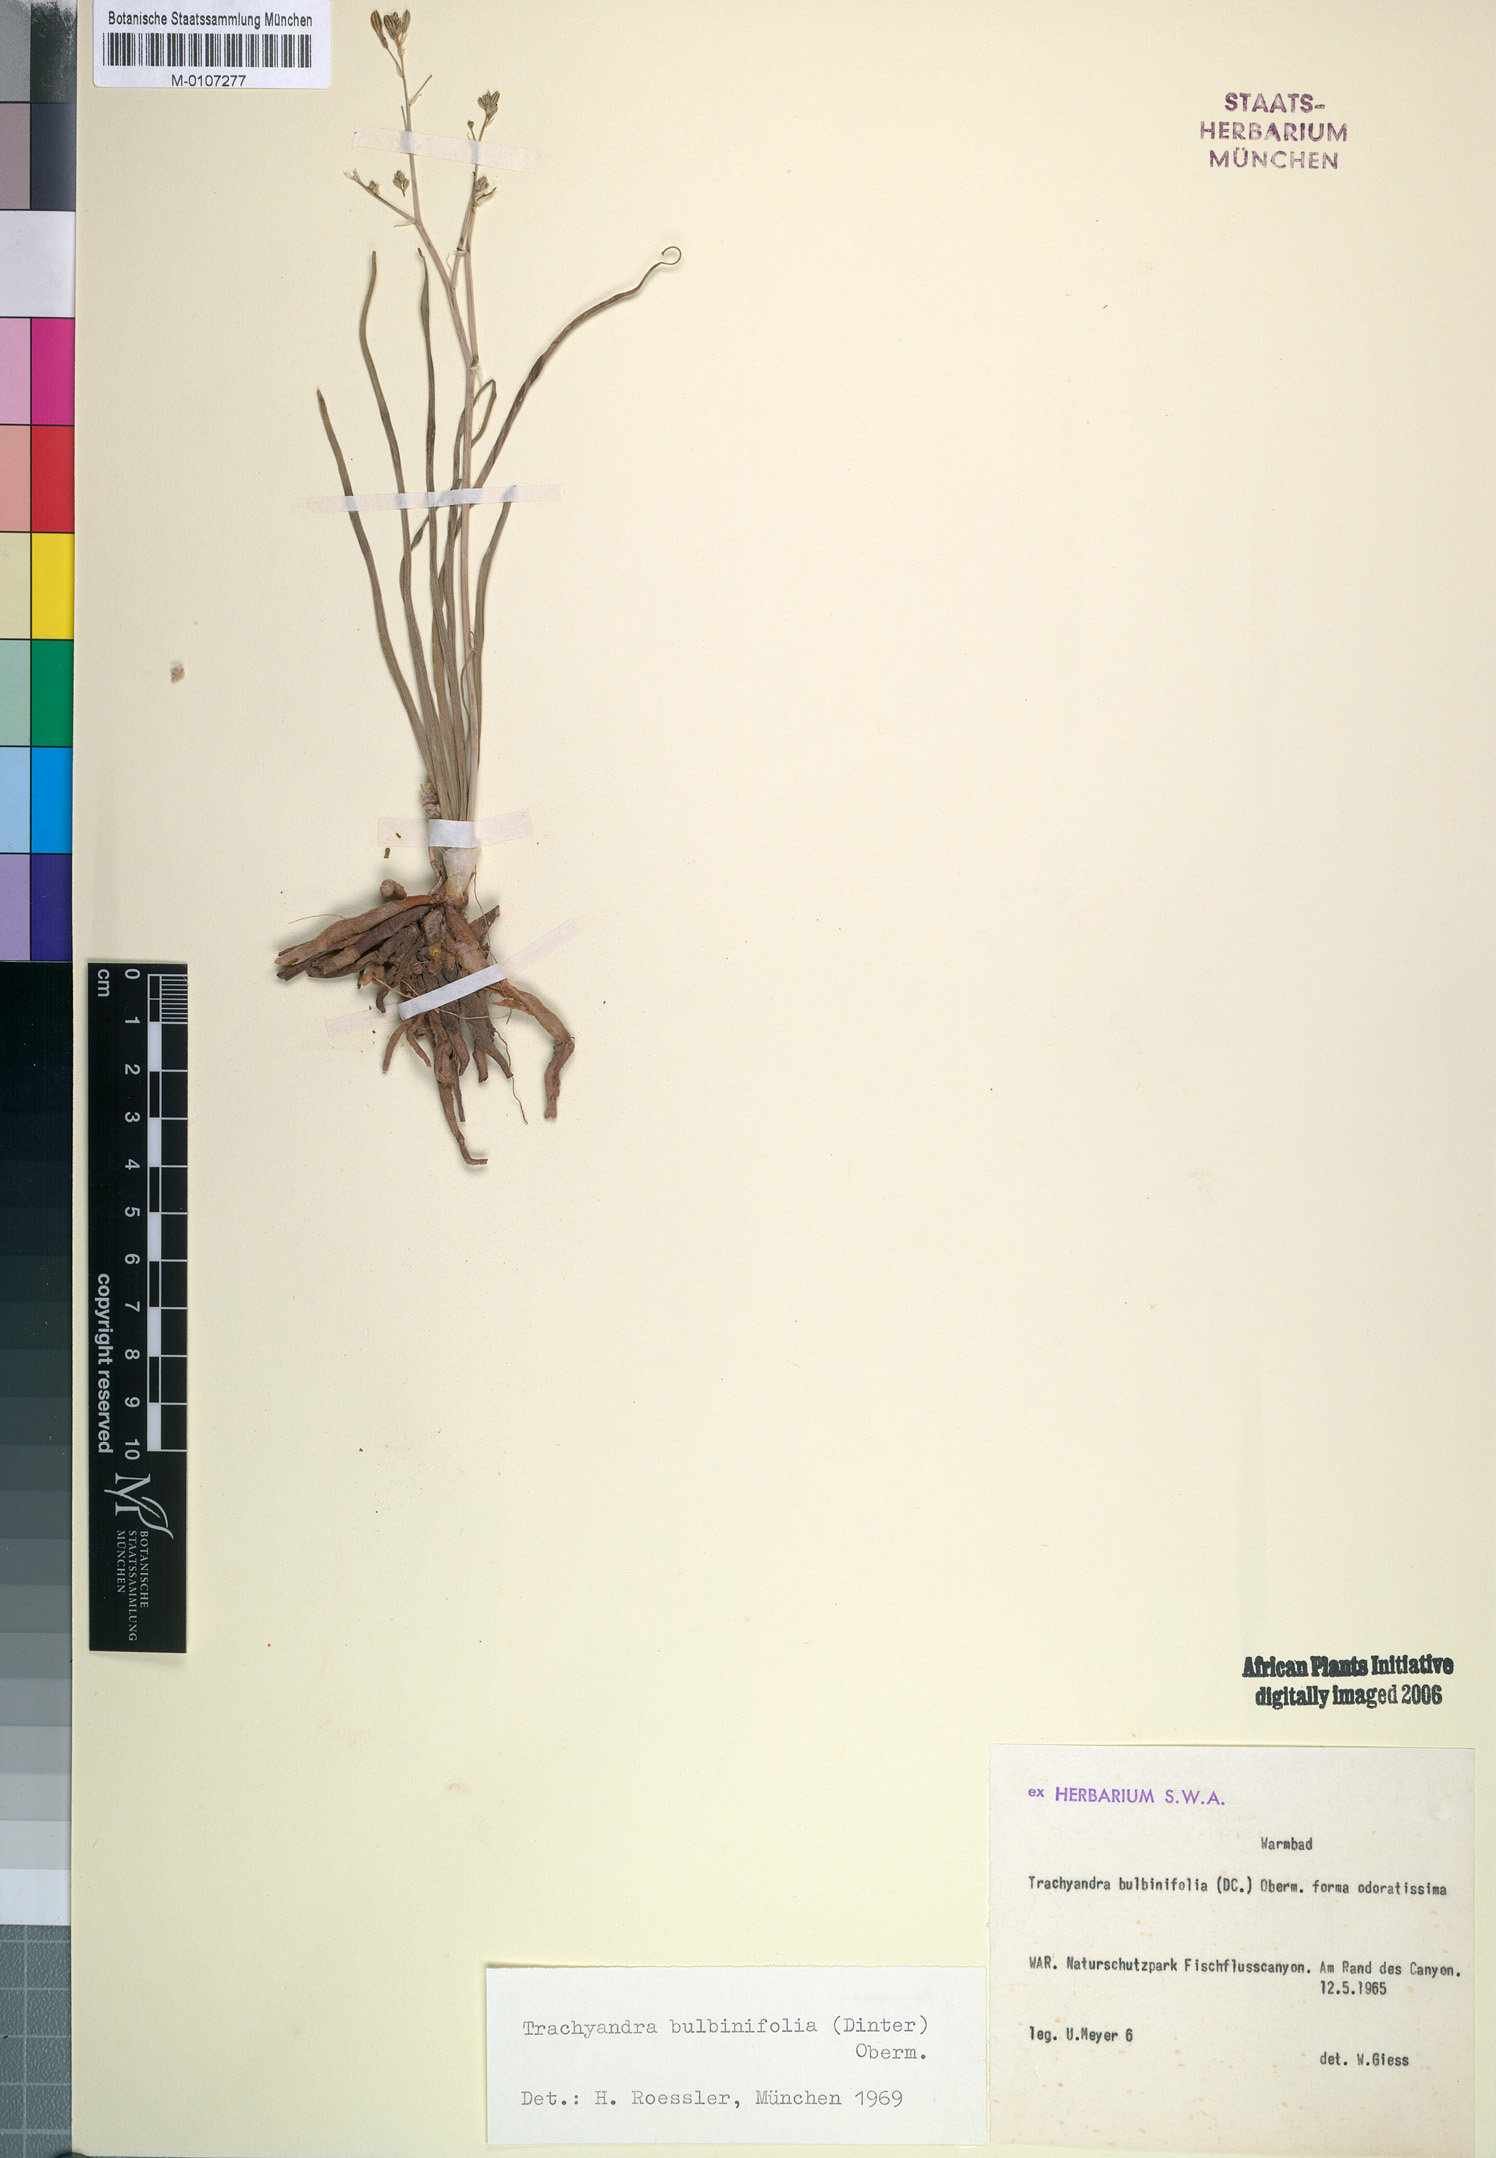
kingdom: Plantae
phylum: Tracheophyta
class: Liliopsida
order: Asparagales
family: Asphodelaceae
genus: Trachyandra
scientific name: Trachyandra bulbinifolia
